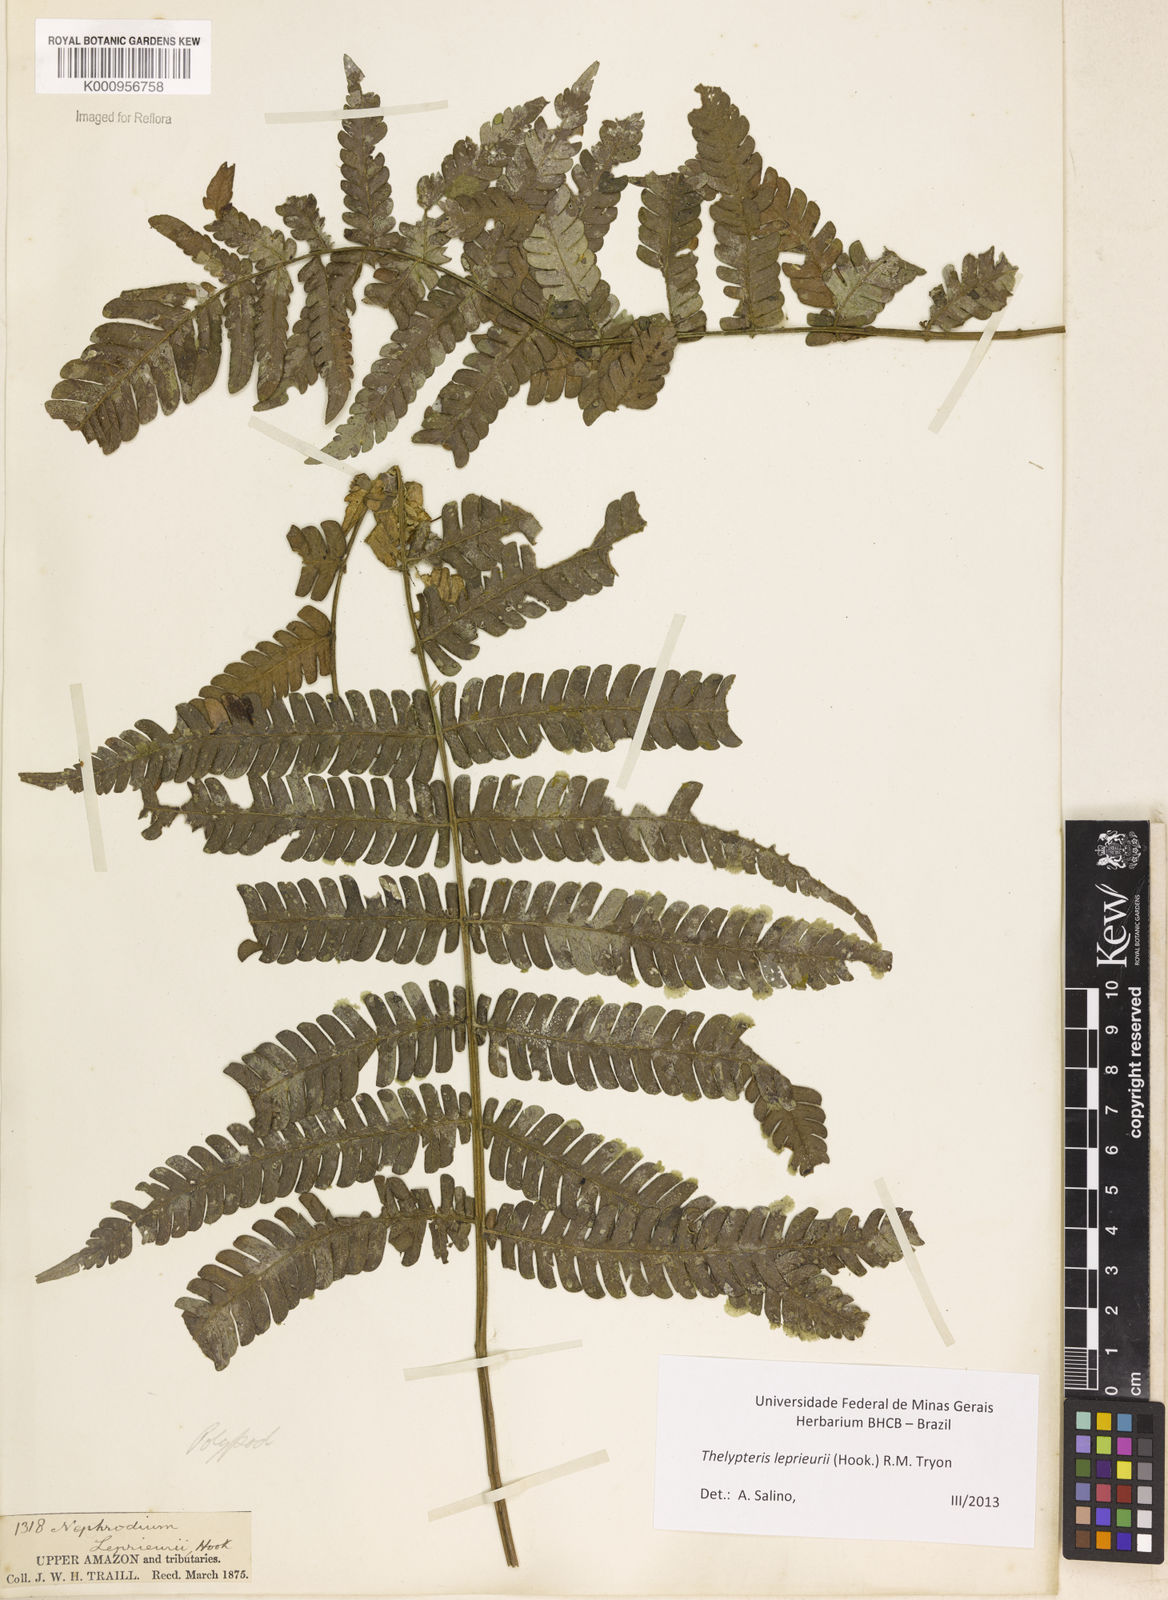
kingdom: Plantae
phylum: Tracheophyta
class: Polypodiopsida
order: Polypodiales
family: Thelypteridaceae
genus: Steiropteris
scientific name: Steiropteris leprieurii
